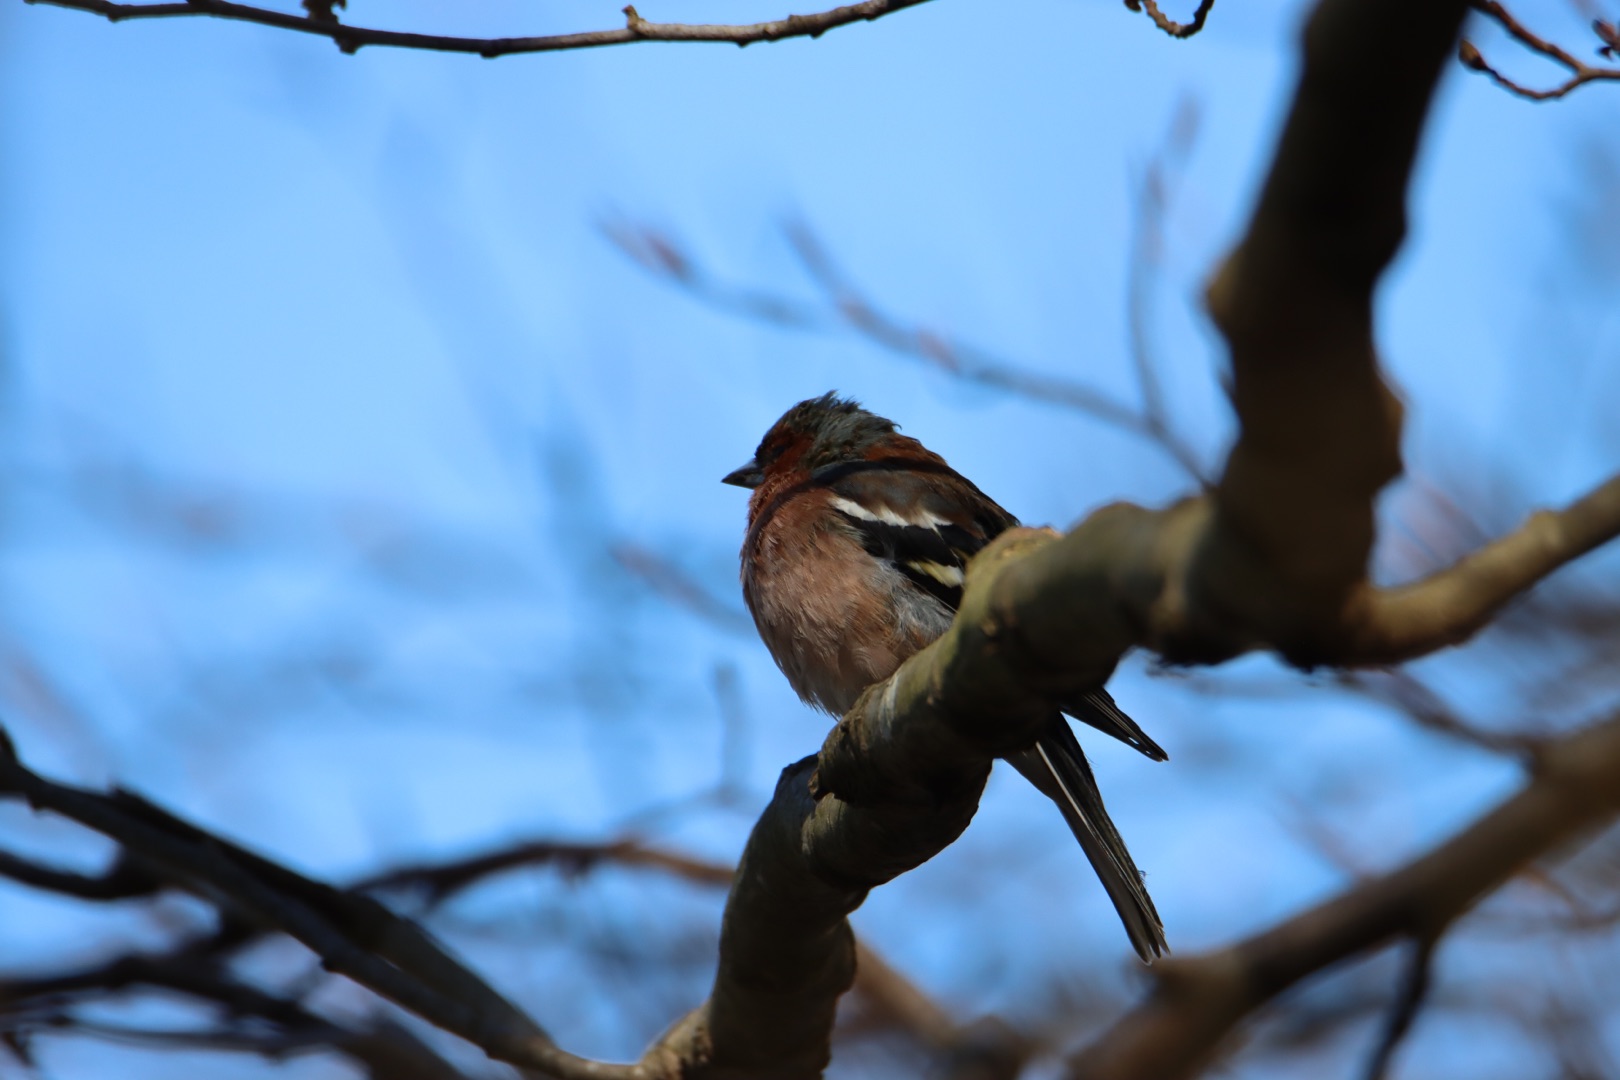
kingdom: Animalia
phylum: Chordata
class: Aves
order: Passeriformes
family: Fringillidae
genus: Fringilla
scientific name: Fringilla coelebs
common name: Bogfinke
